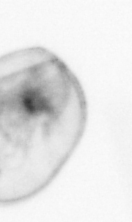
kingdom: Chromista
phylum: Myzozoa
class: Dinophyceae
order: Noctilucales
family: Noctilucaceae
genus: Noctiluca
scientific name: Noctiluca scintillans
